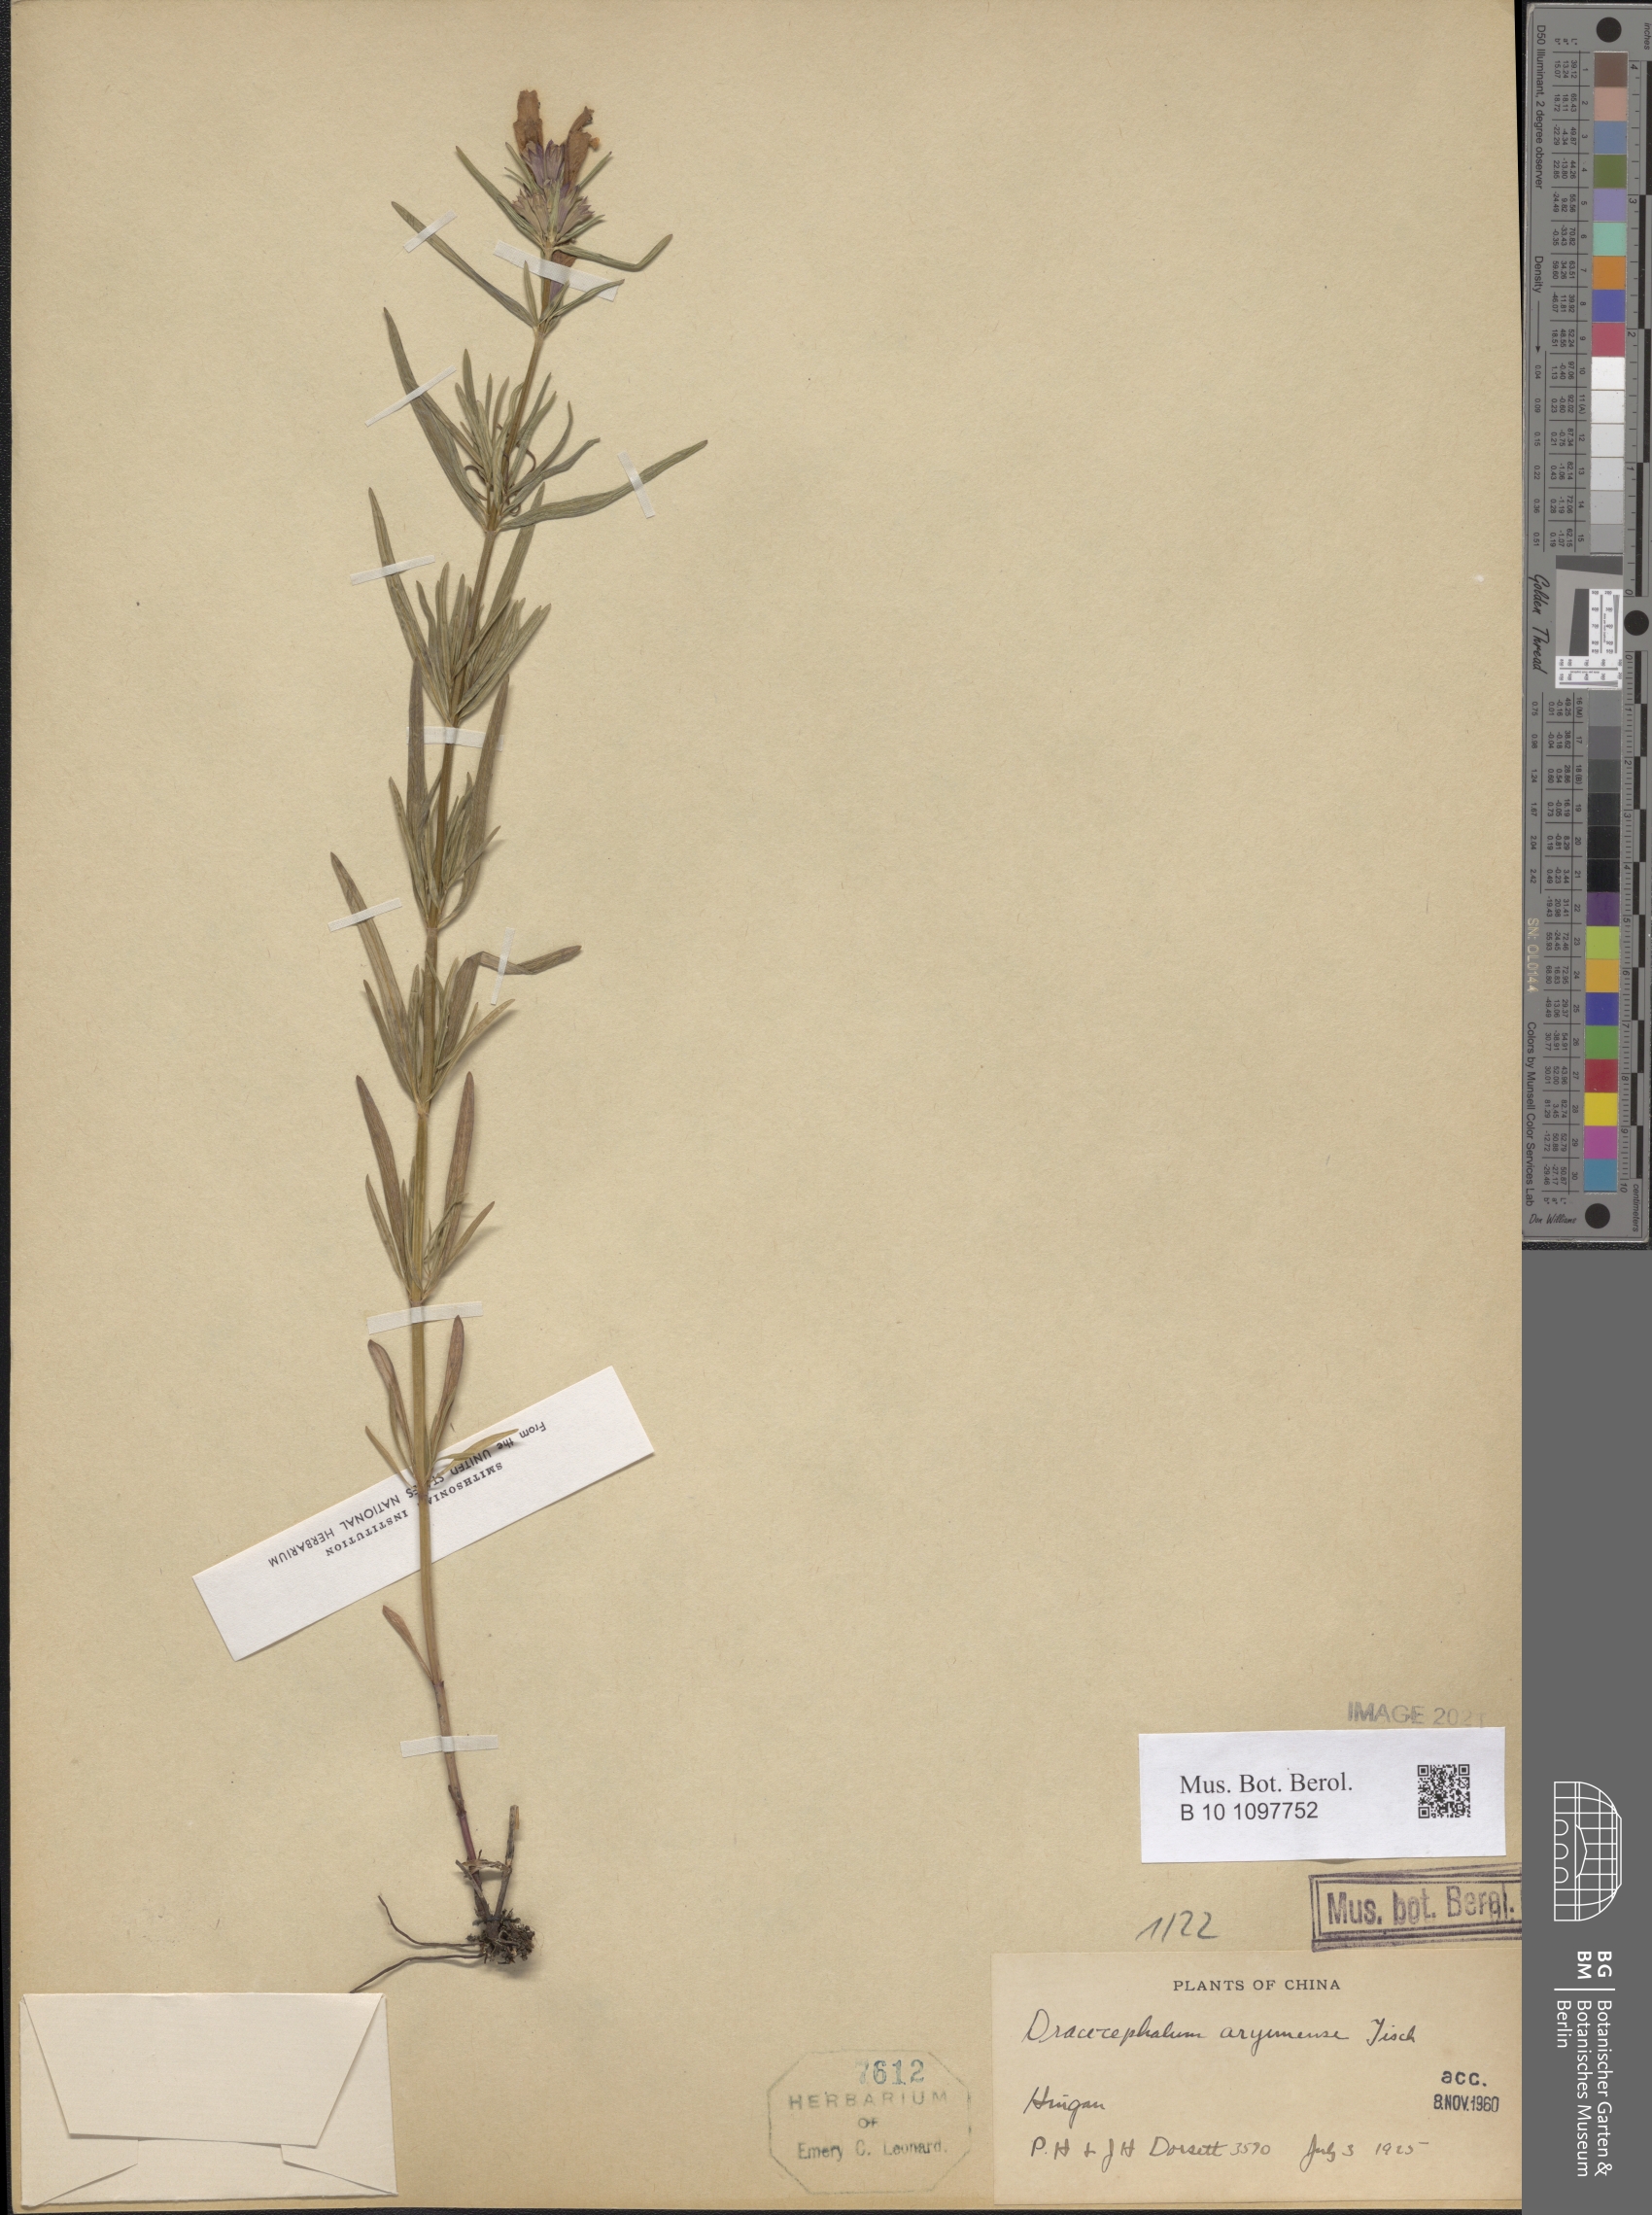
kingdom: Plantae
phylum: Tracheophyta
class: Magnoliopsida
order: Lamiales
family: Lamiaceae
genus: Dracocephalum
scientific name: Dracocephalum argunense
